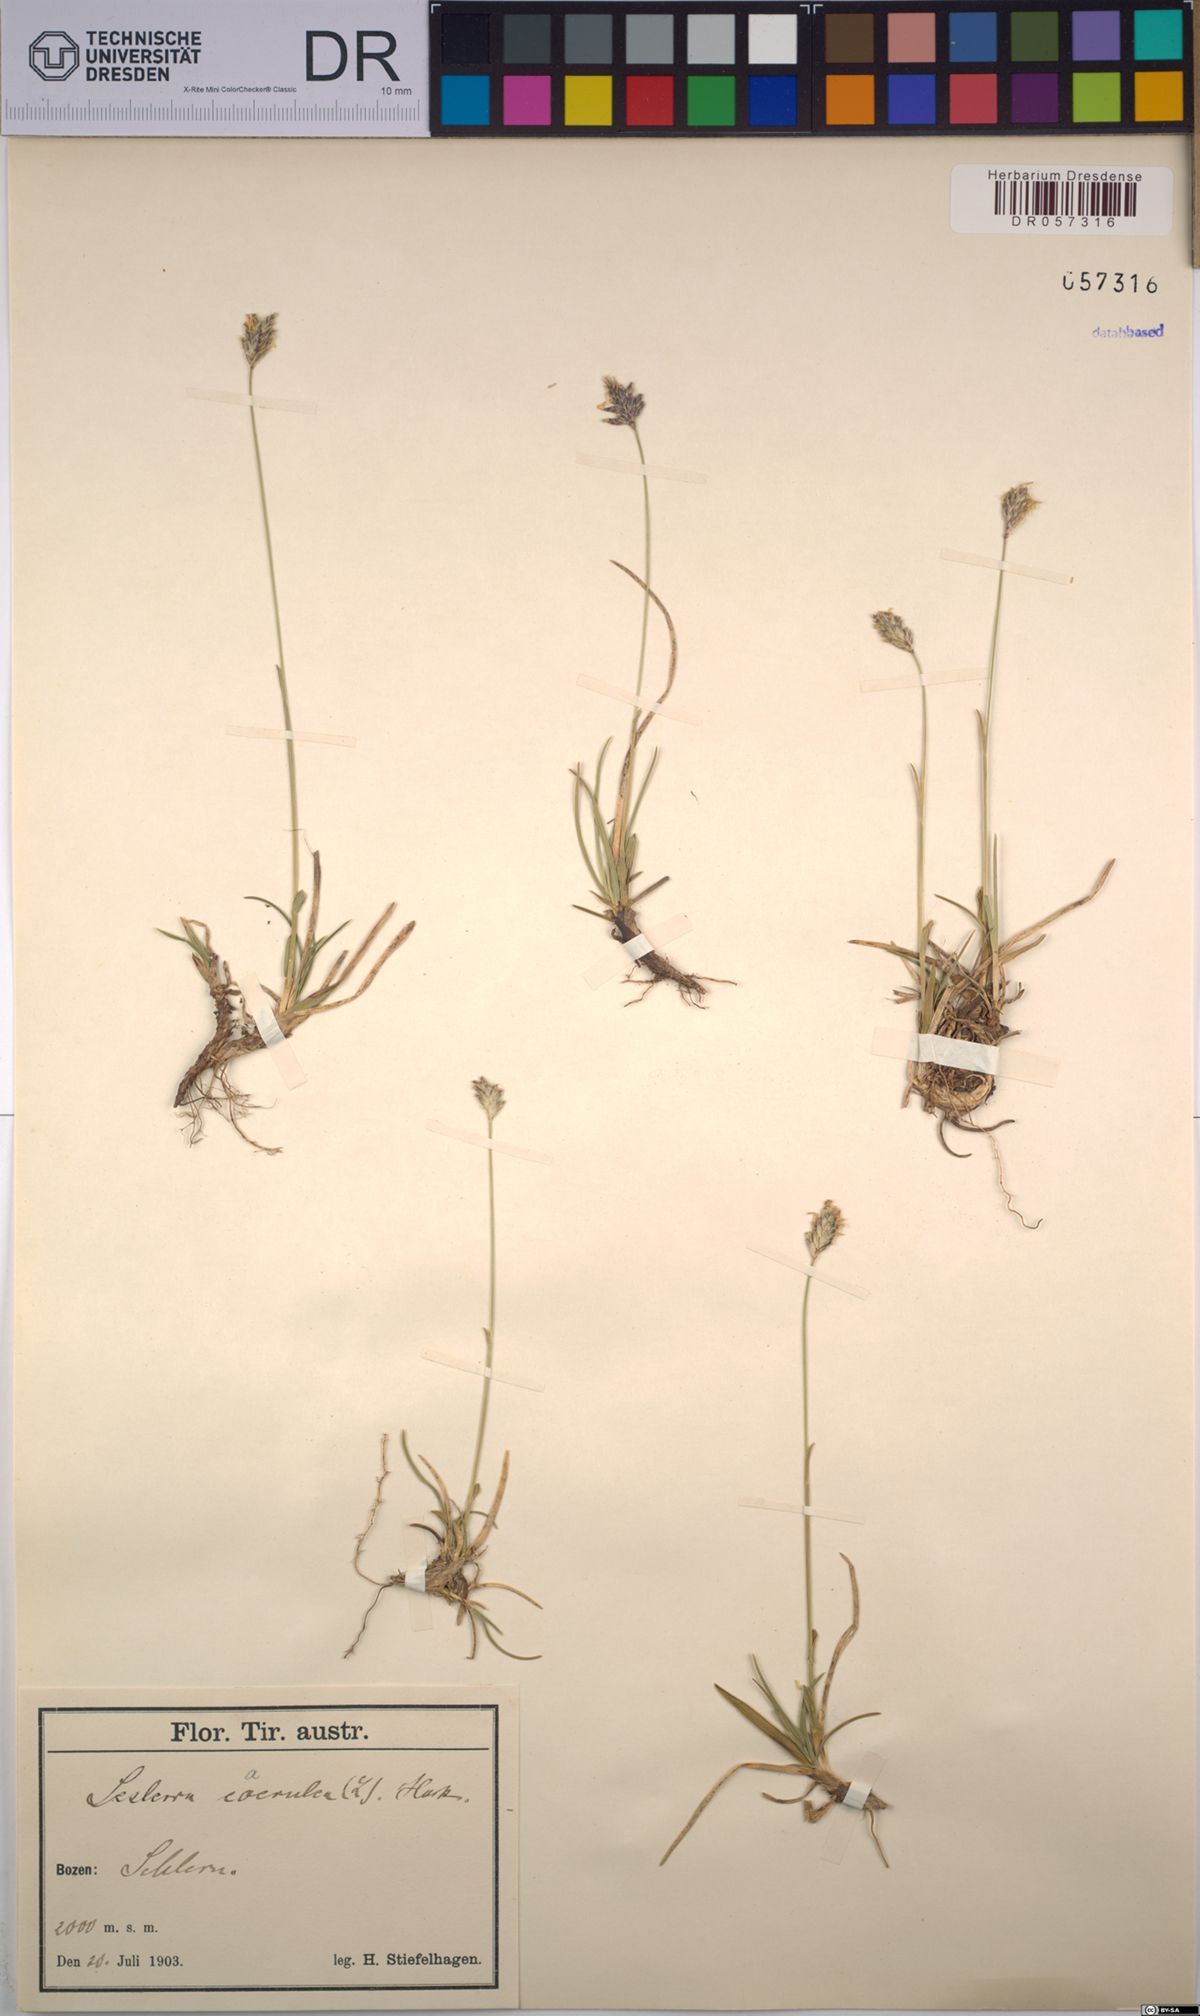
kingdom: Plantae
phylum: Tracheophyta
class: Liliopsida
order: Poales
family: Poaceae
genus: Sesleria
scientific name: Sesleria caerulea
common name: Blue moor-grass
